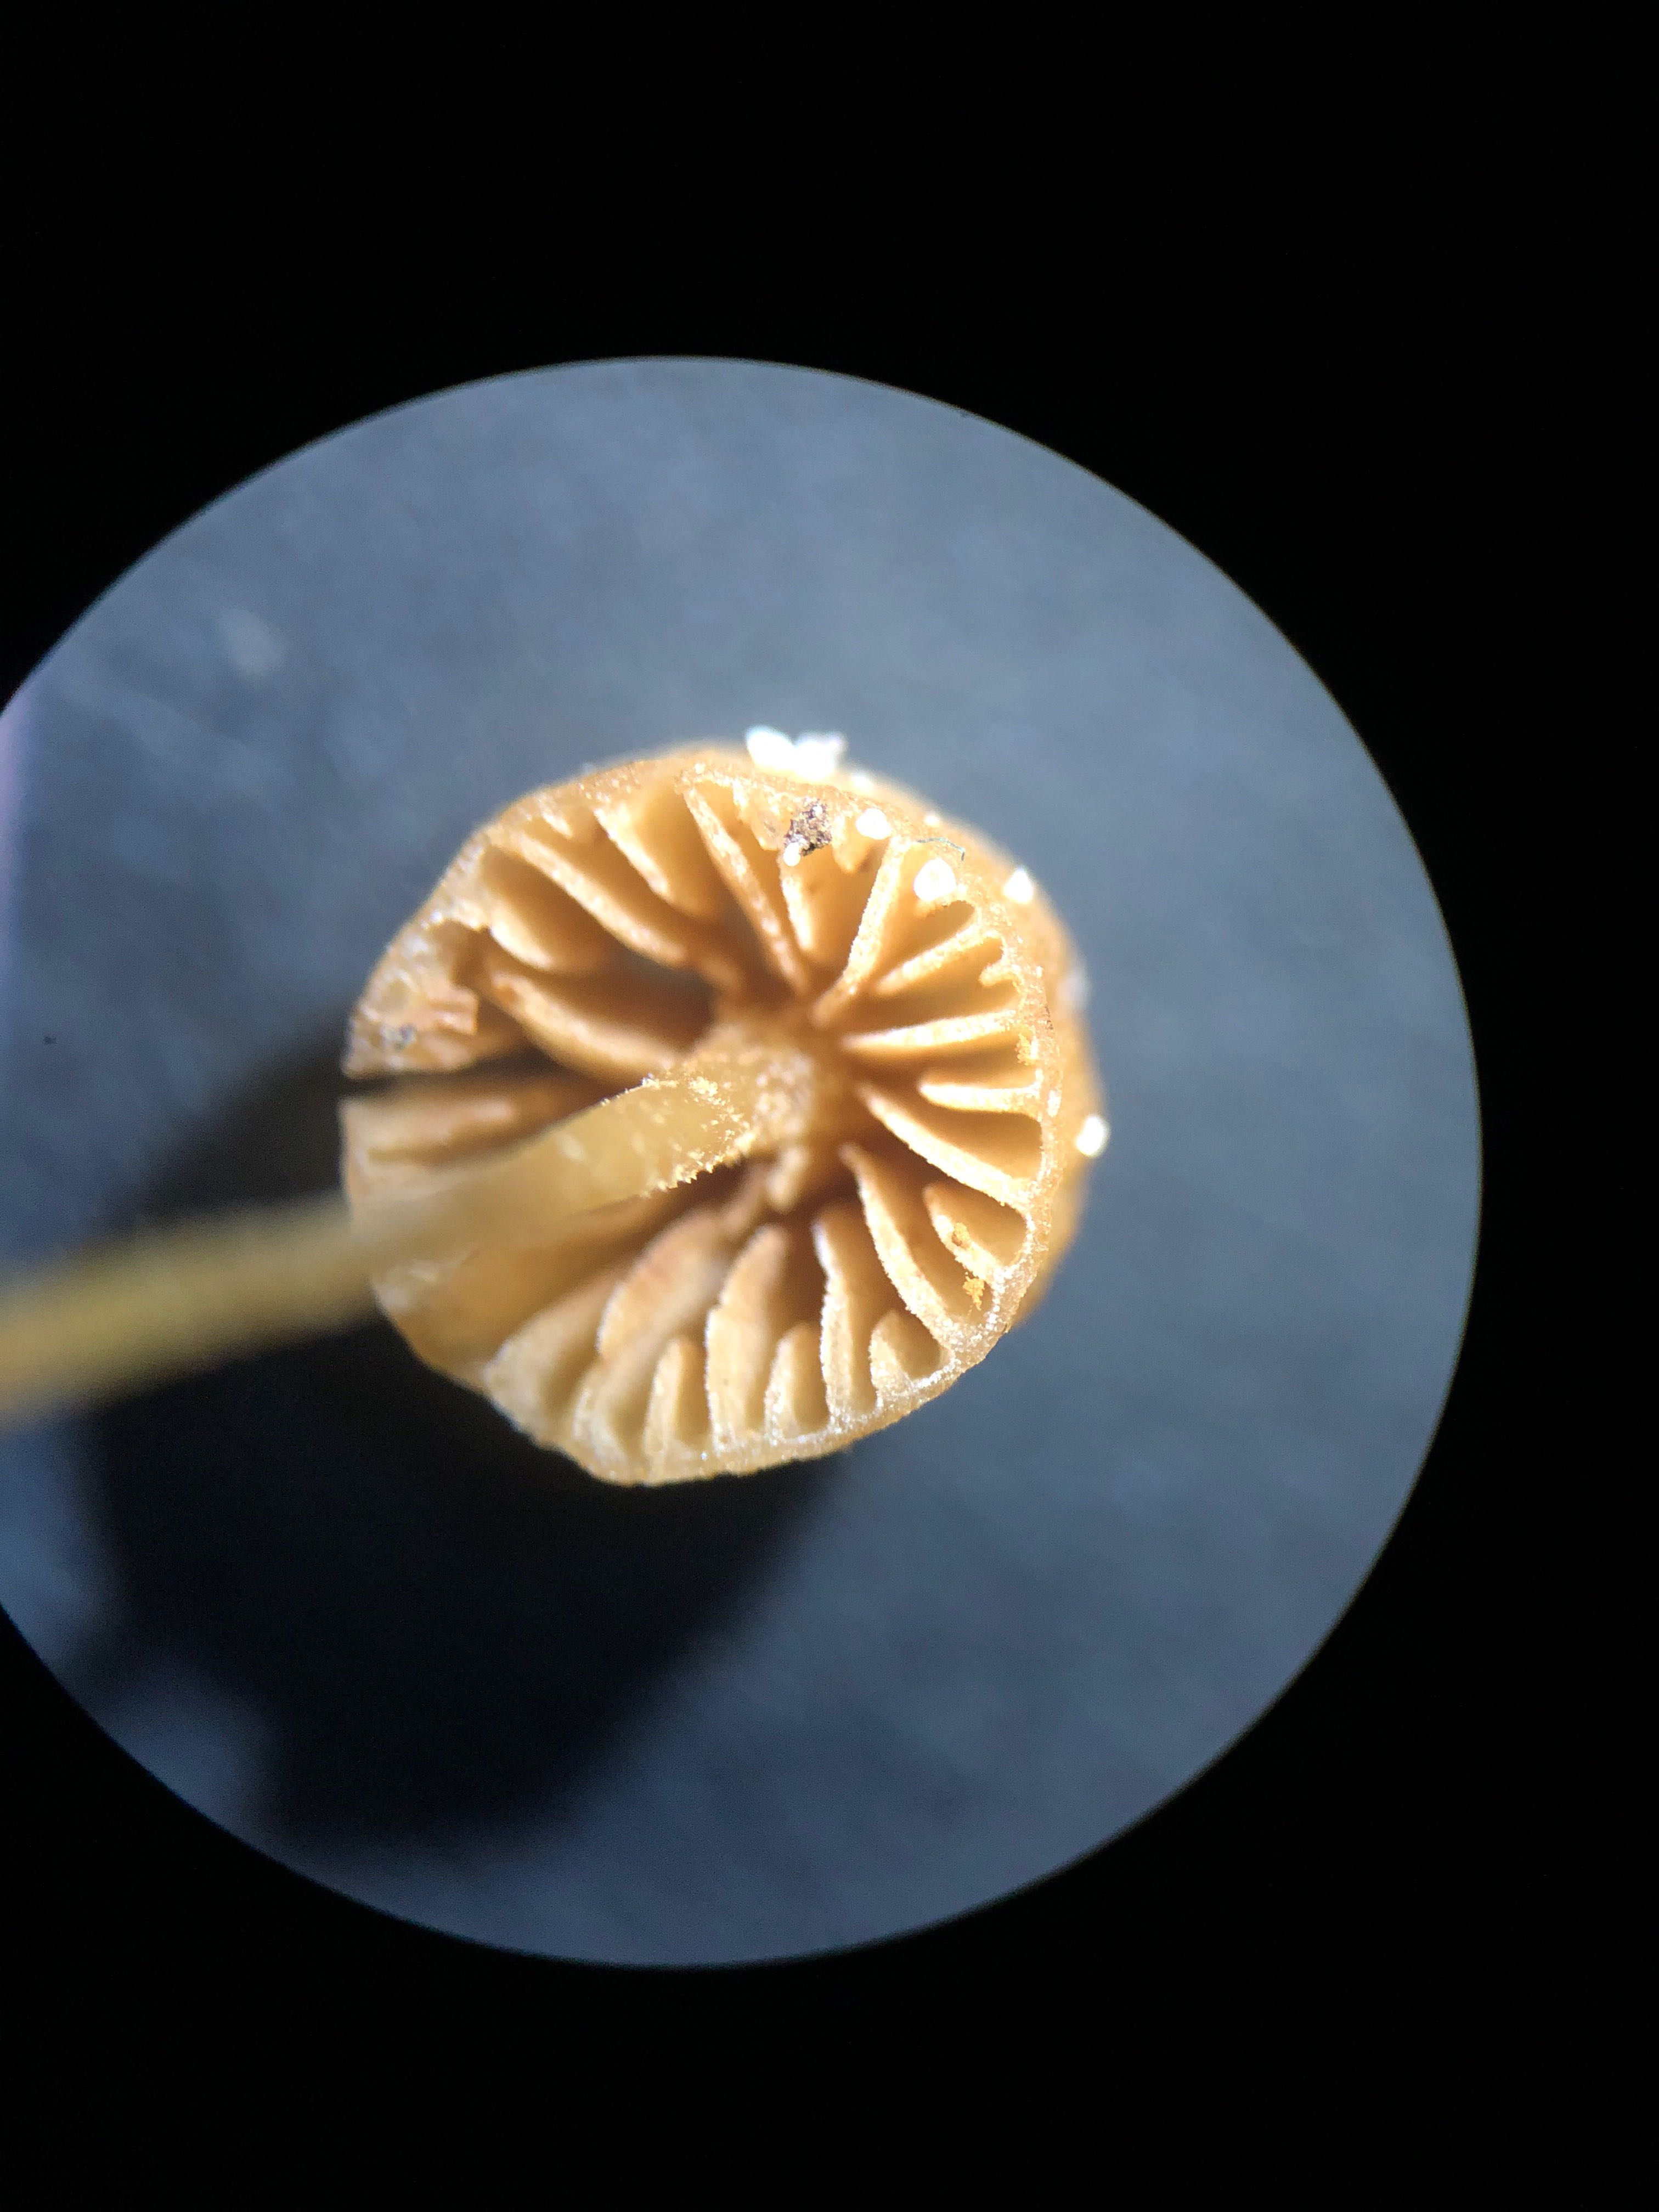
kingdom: Fungi
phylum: Basidiomycota
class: Agaricomycetes
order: Agaricales
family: Hymenogastraceae
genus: Galerina
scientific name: Galerina hypnorum
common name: mos-hjelmhat
